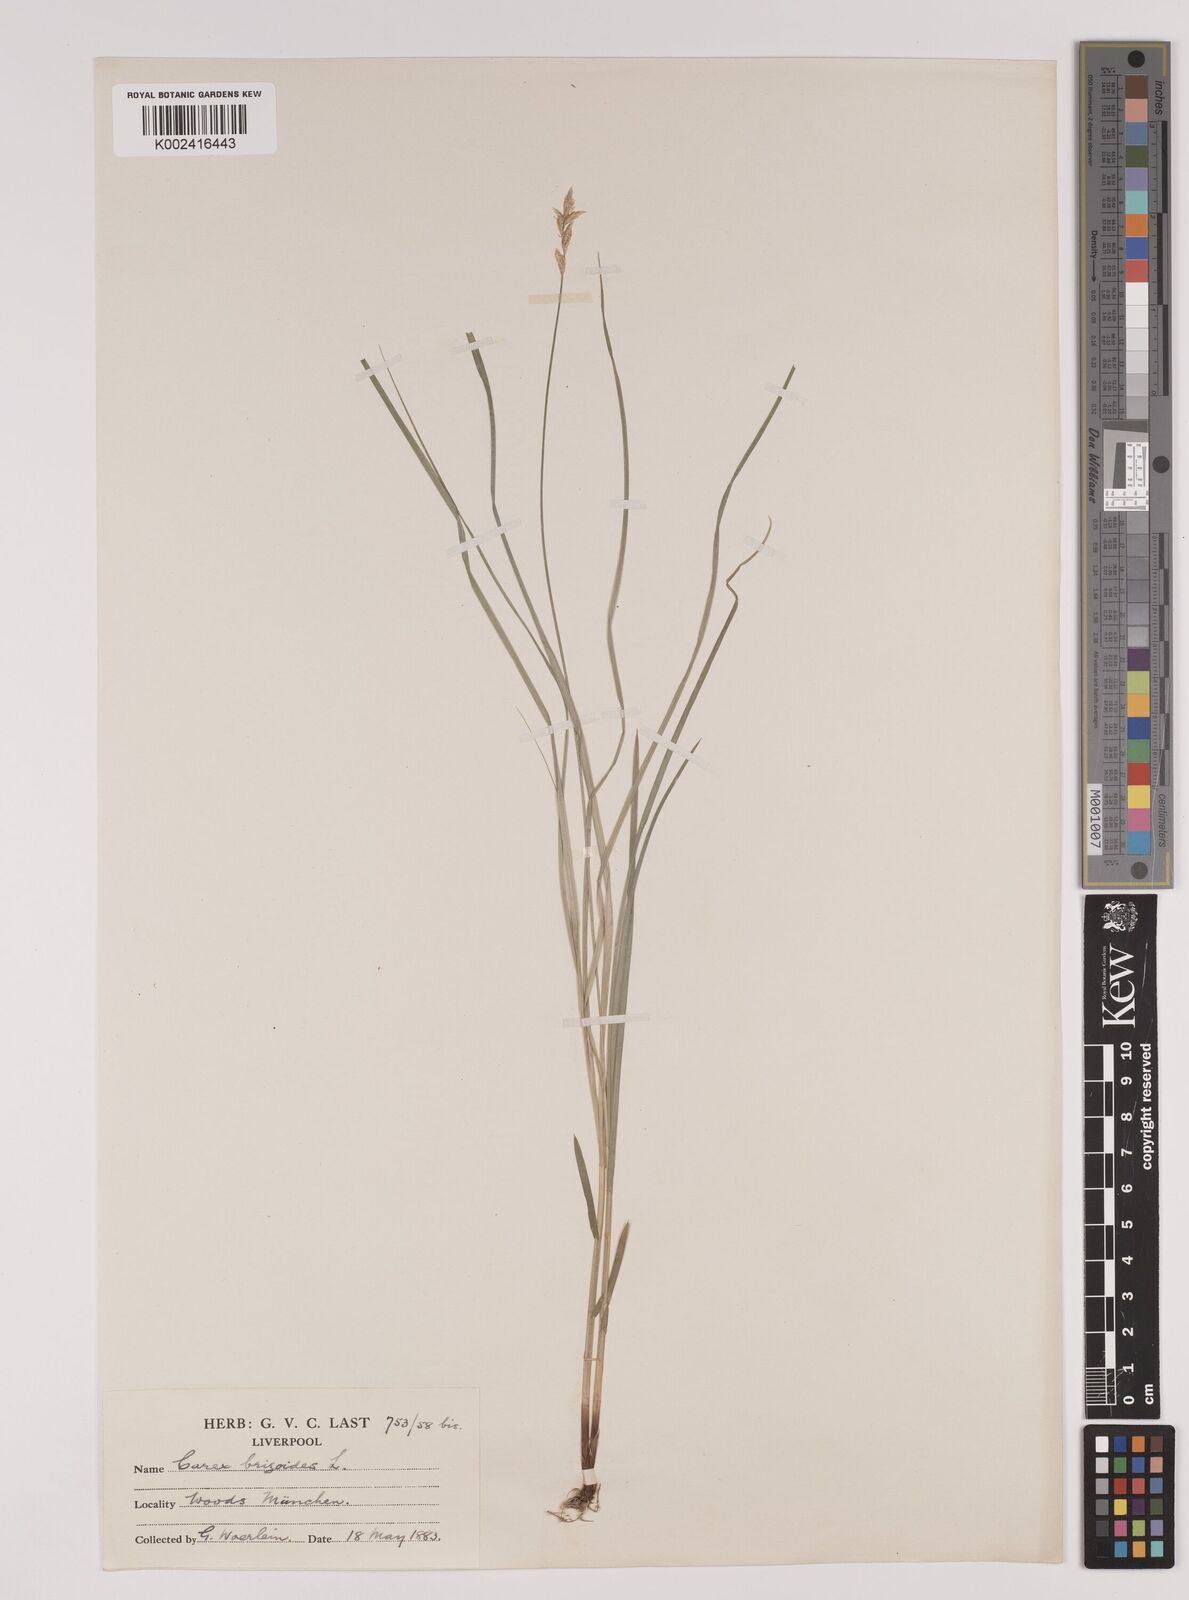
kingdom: Plantae
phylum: Tracheophyta
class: Liliopsida
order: Poales
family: Cyperaceae
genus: Carex
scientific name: Carex brizoides
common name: Quaking-grass sedge
